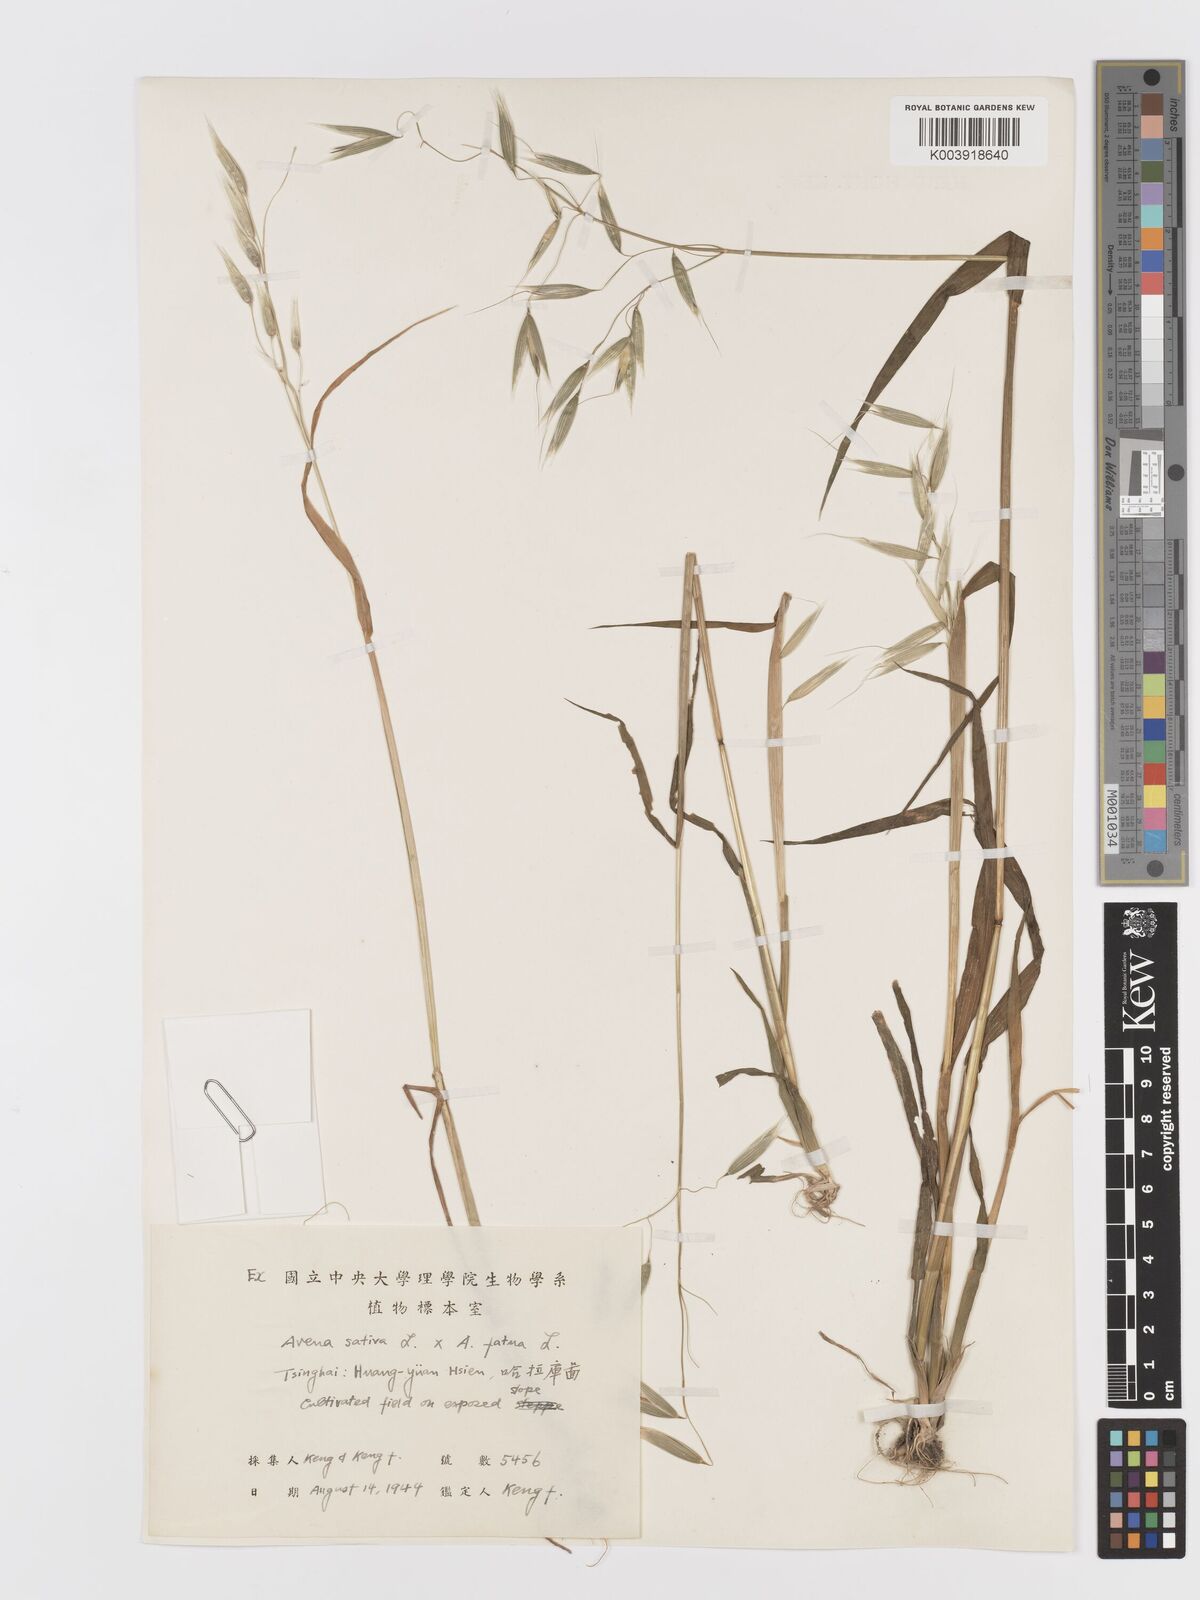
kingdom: Plantae
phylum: Tracheophyta
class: Liliopsida
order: Poales
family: Poaceae
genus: Avena
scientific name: Avena
